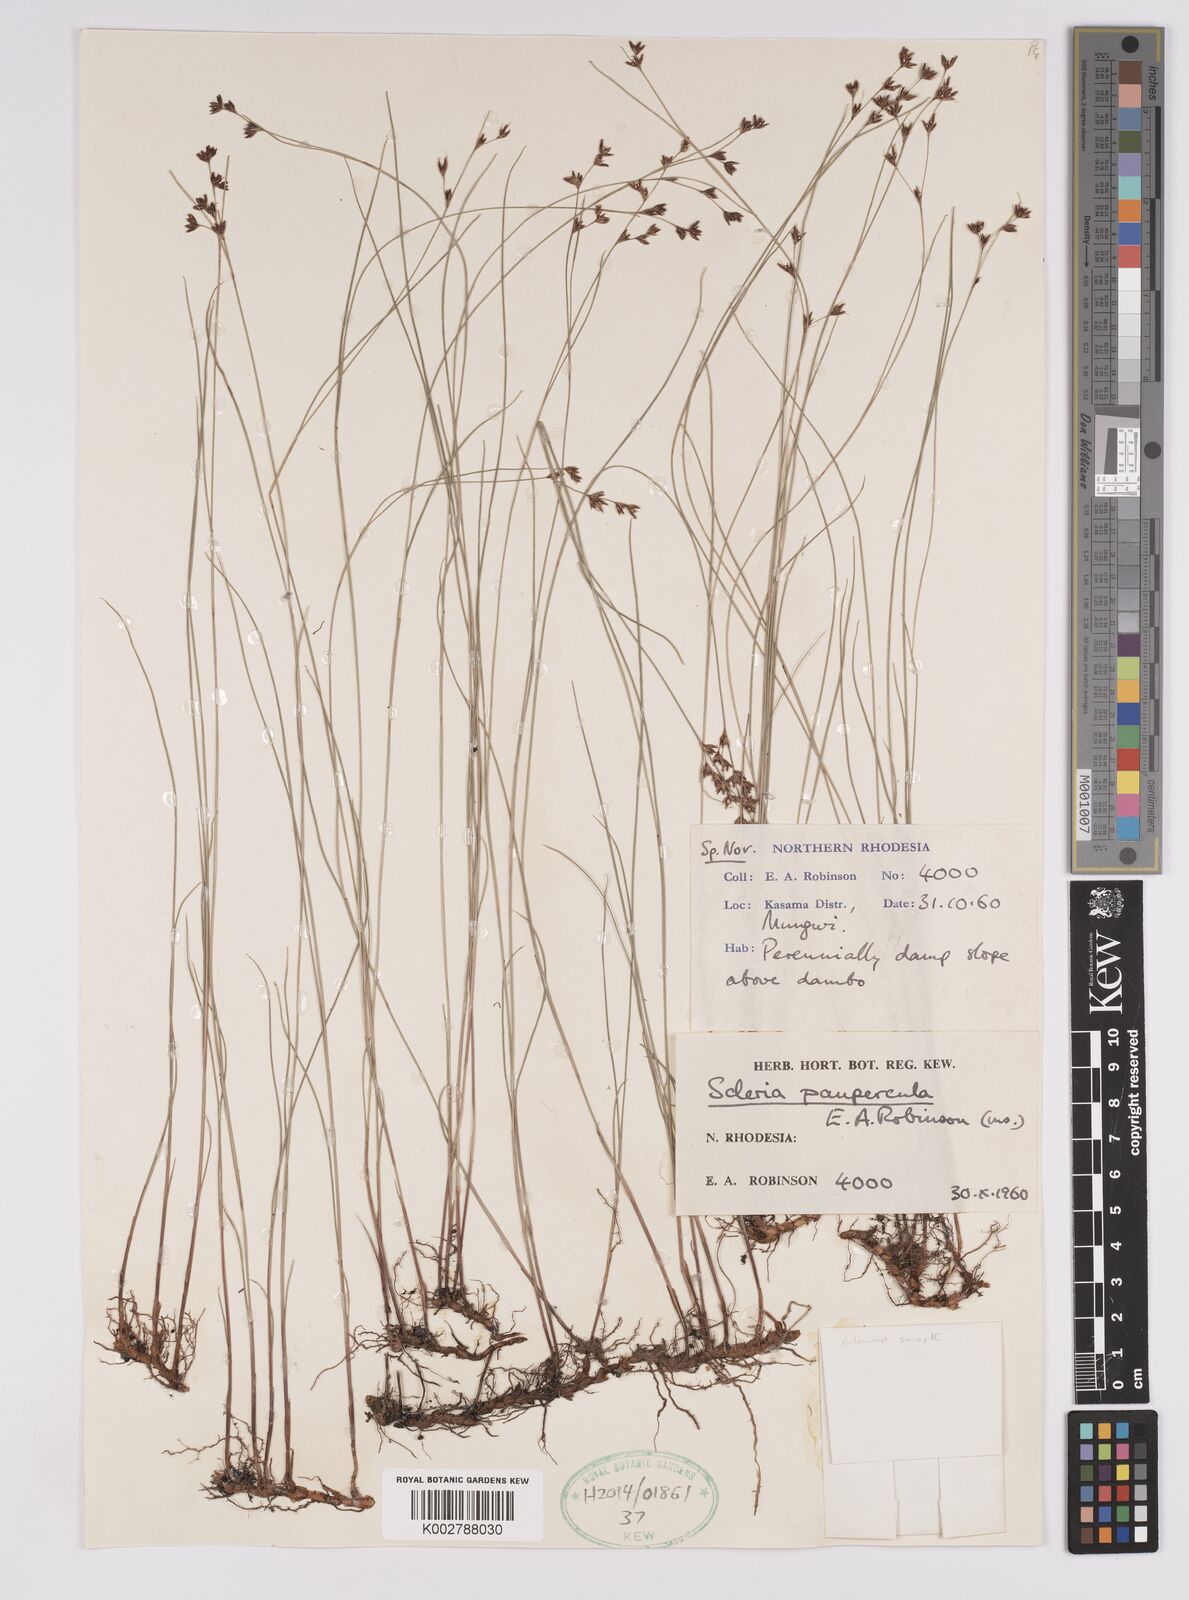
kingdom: Plantae
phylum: Tracheophyta
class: Liliopsida
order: Poales
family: Cyperaceae
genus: Scleria
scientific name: Scleria paupercula
